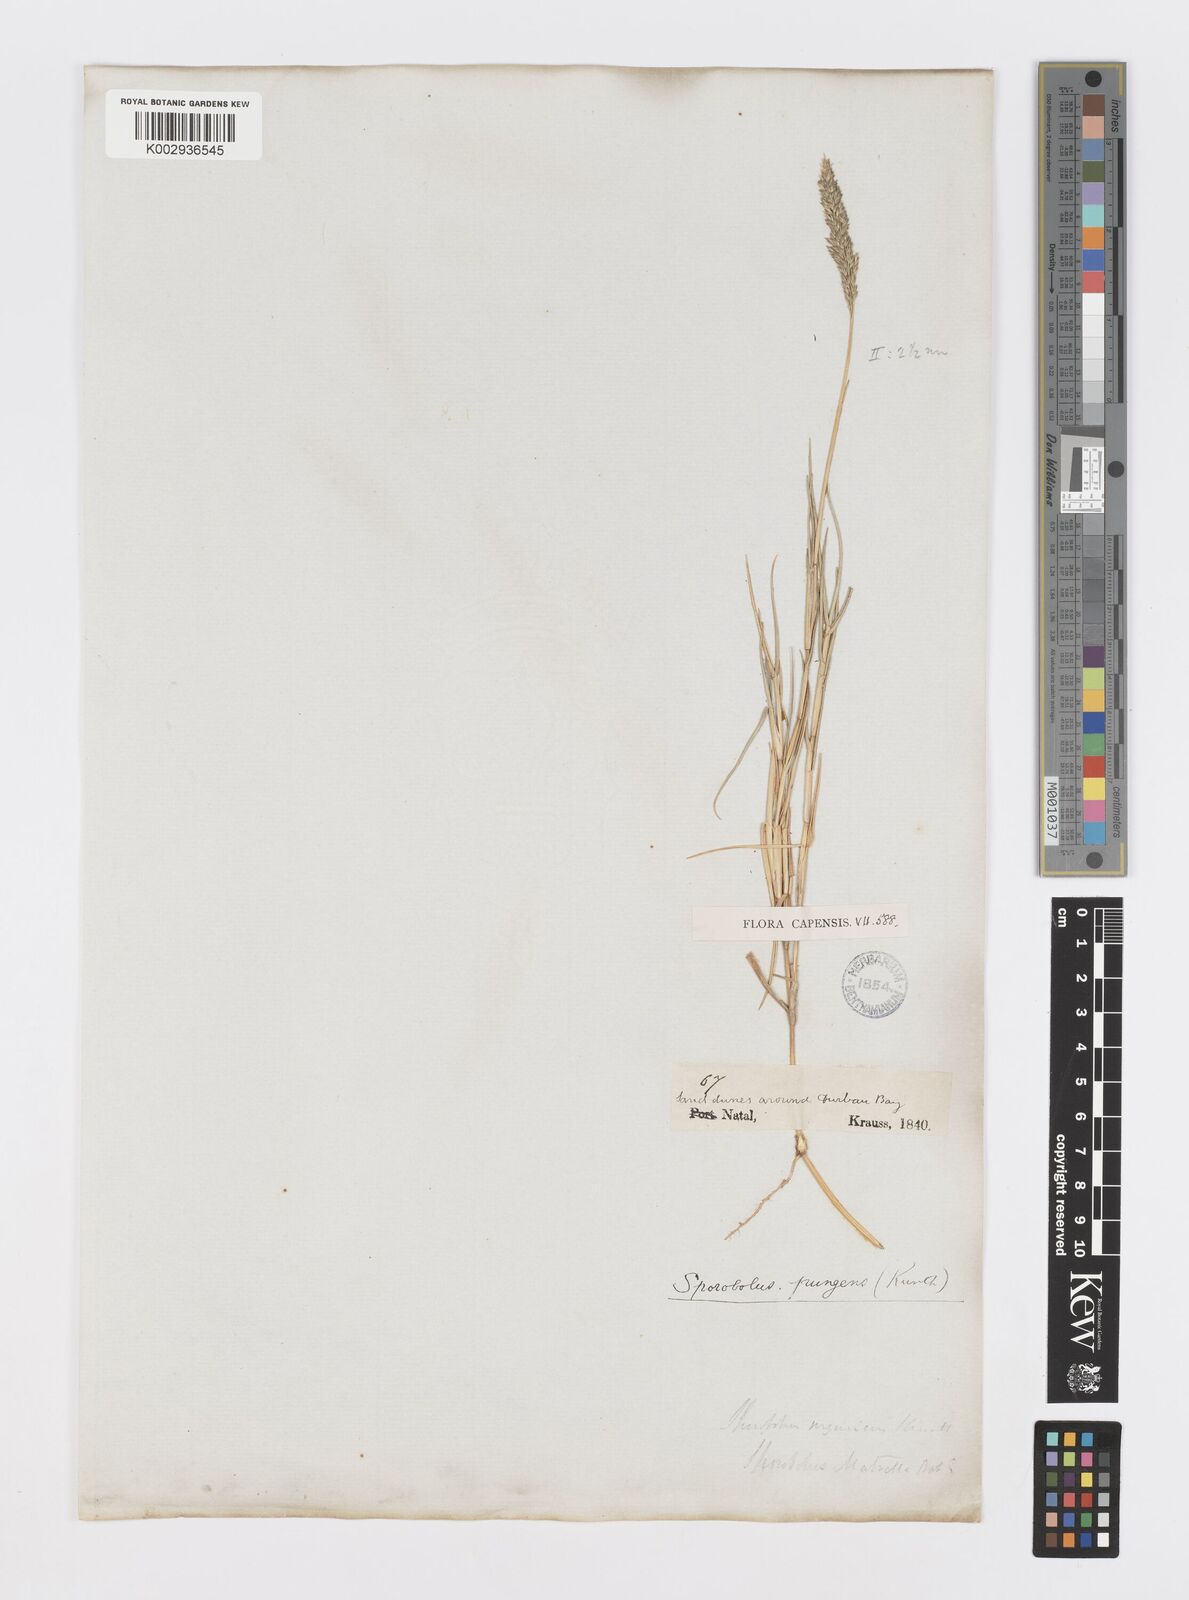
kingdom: Plantae
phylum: Tracheophyta
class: Liliopsida
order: Poales
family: Poaceae
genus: Sporobolus
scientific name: Sporobolus virginicus
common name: Beach dropseed
